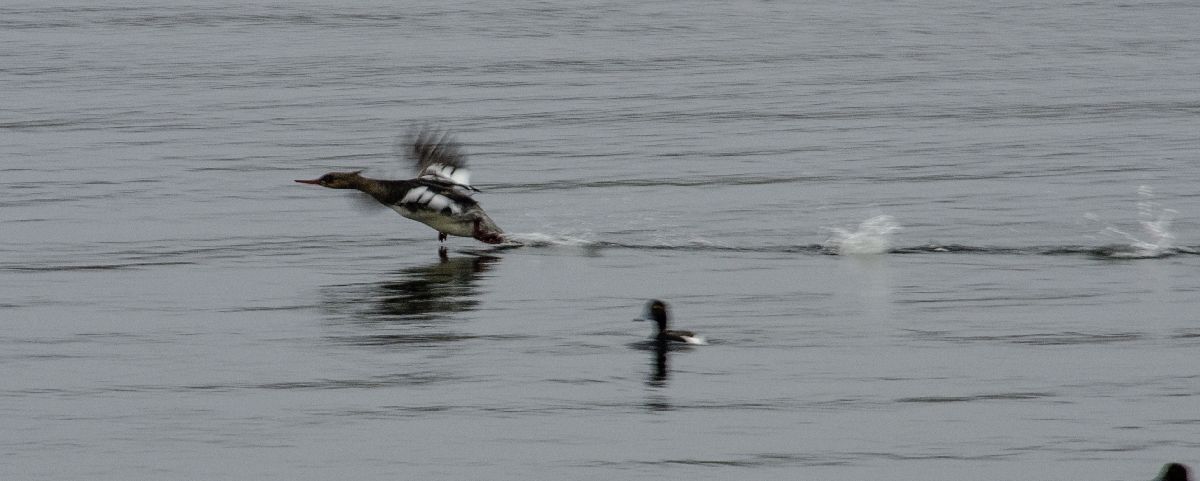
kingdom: Animalia
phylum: Chordata
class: Aves
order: Anseriformes
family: Anatidae
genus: Mergus
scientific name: Mergus serrator
